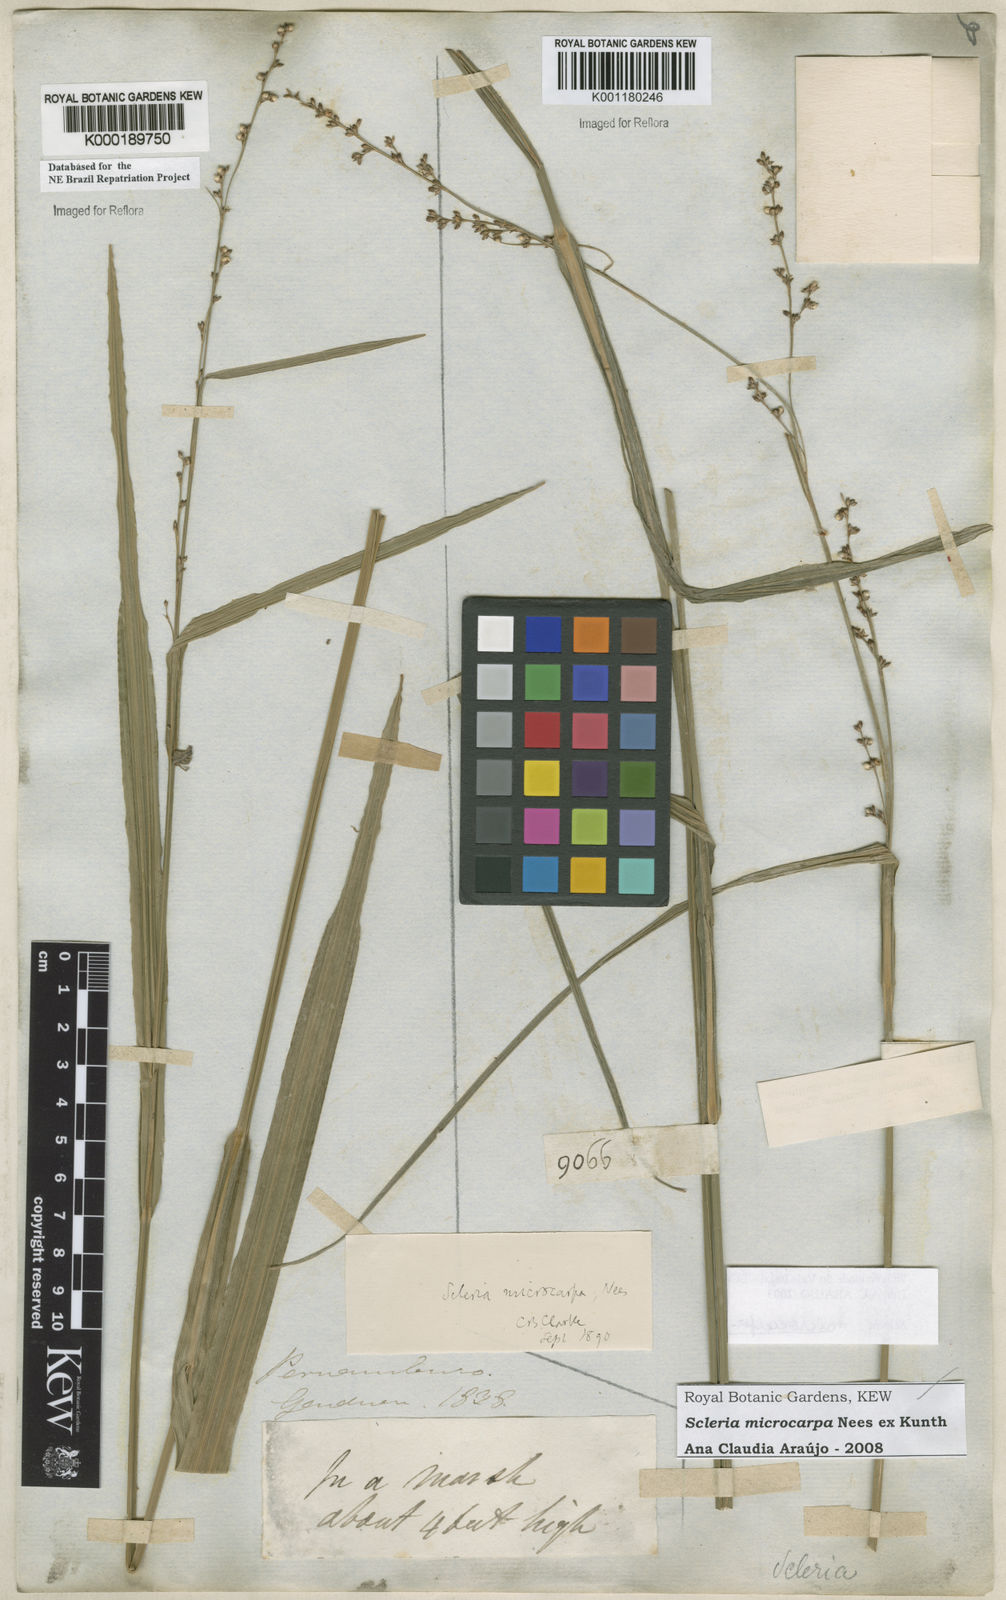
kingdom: Plantae
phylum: Tracheophyta
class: Liliopsida
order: Poales
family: Cyperaceae
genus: Scleria
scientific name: Scleria microcarpa
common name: Tropical nutrush
